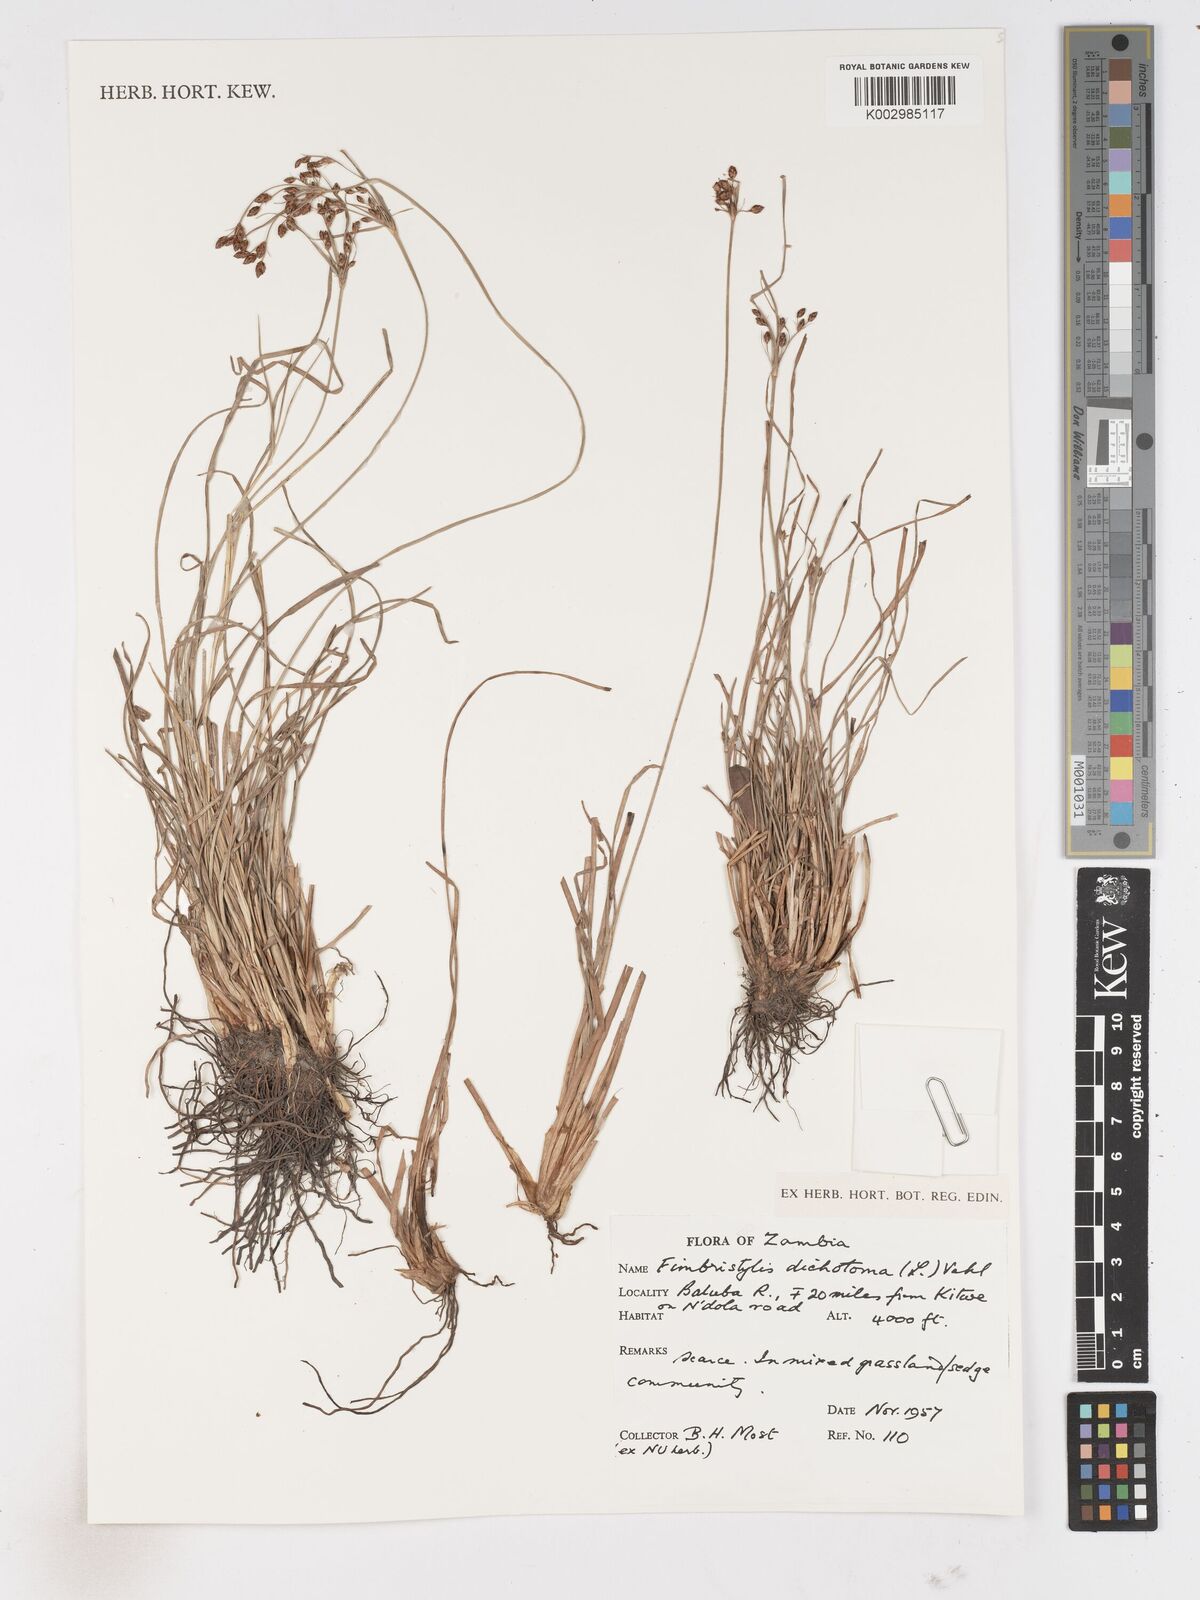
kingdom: Plantae
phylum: Tracheophyta
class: Liliopsida
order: Poales
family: Cyperaceae
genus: Fimbristylis
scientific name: Fimbristylis dichotoma
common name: Forked fimbry
